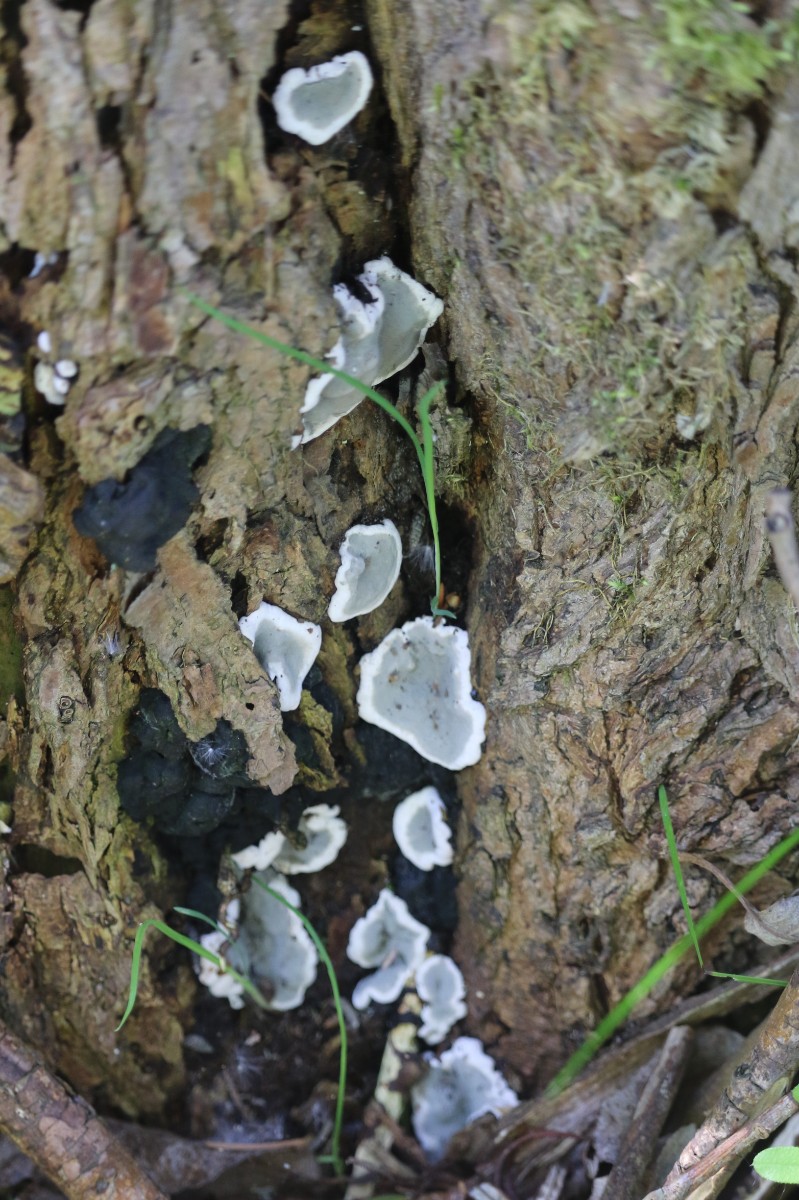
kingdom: Fungi
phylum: Ascomycota
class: Sordariomycetes
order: Xylariales
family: Xylariaceae
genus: Kretzschmaria
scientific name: Kretzschmaria deusta
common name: stor kulsvamp
